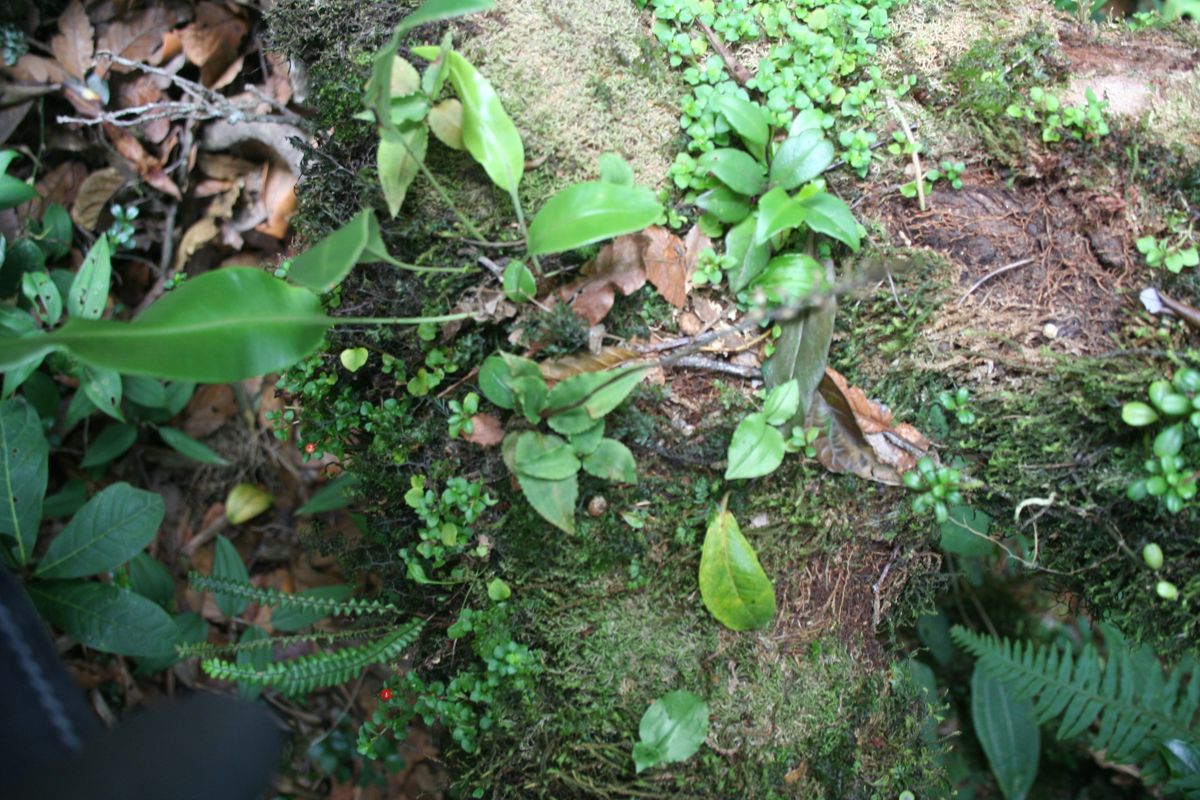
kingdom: Plantae
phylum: Tracheophyta
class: Liliopsida
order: Asparagales
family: Orchidaceae
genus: Aspidogyne
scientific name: Aspidogyne querceticola
